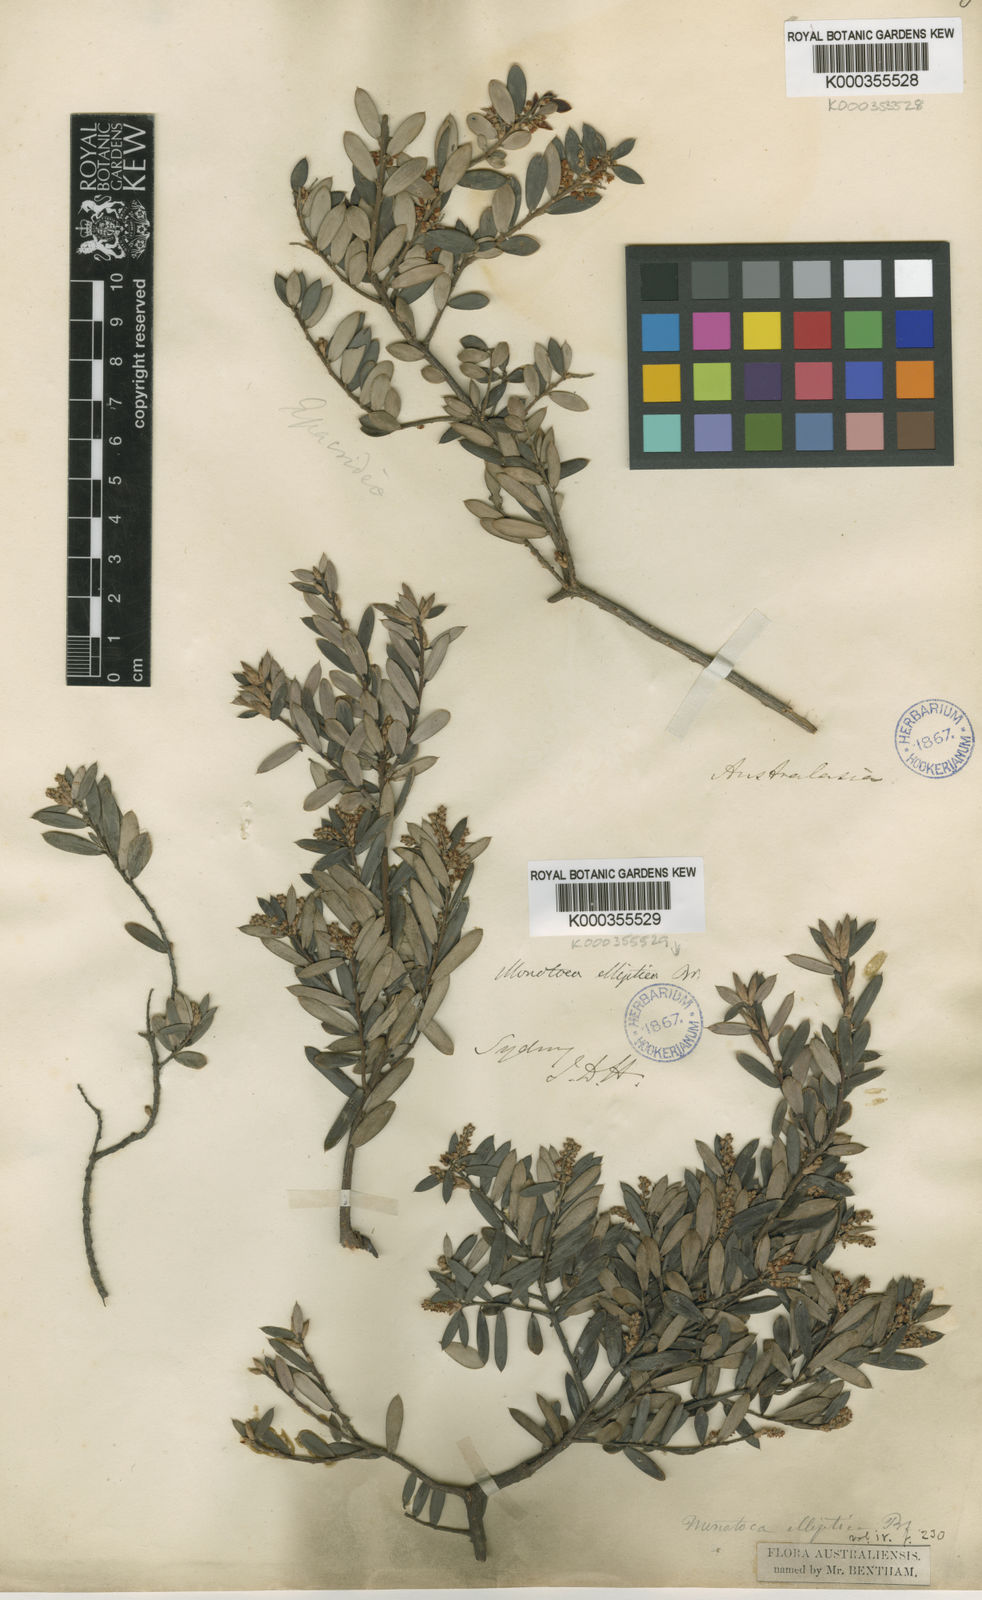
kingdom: Plantae
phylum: Tracheophyta
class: Magnoliopsida
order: Ericales
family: Ericaceae
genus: Monotoca
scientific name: Monotoca elliptica
